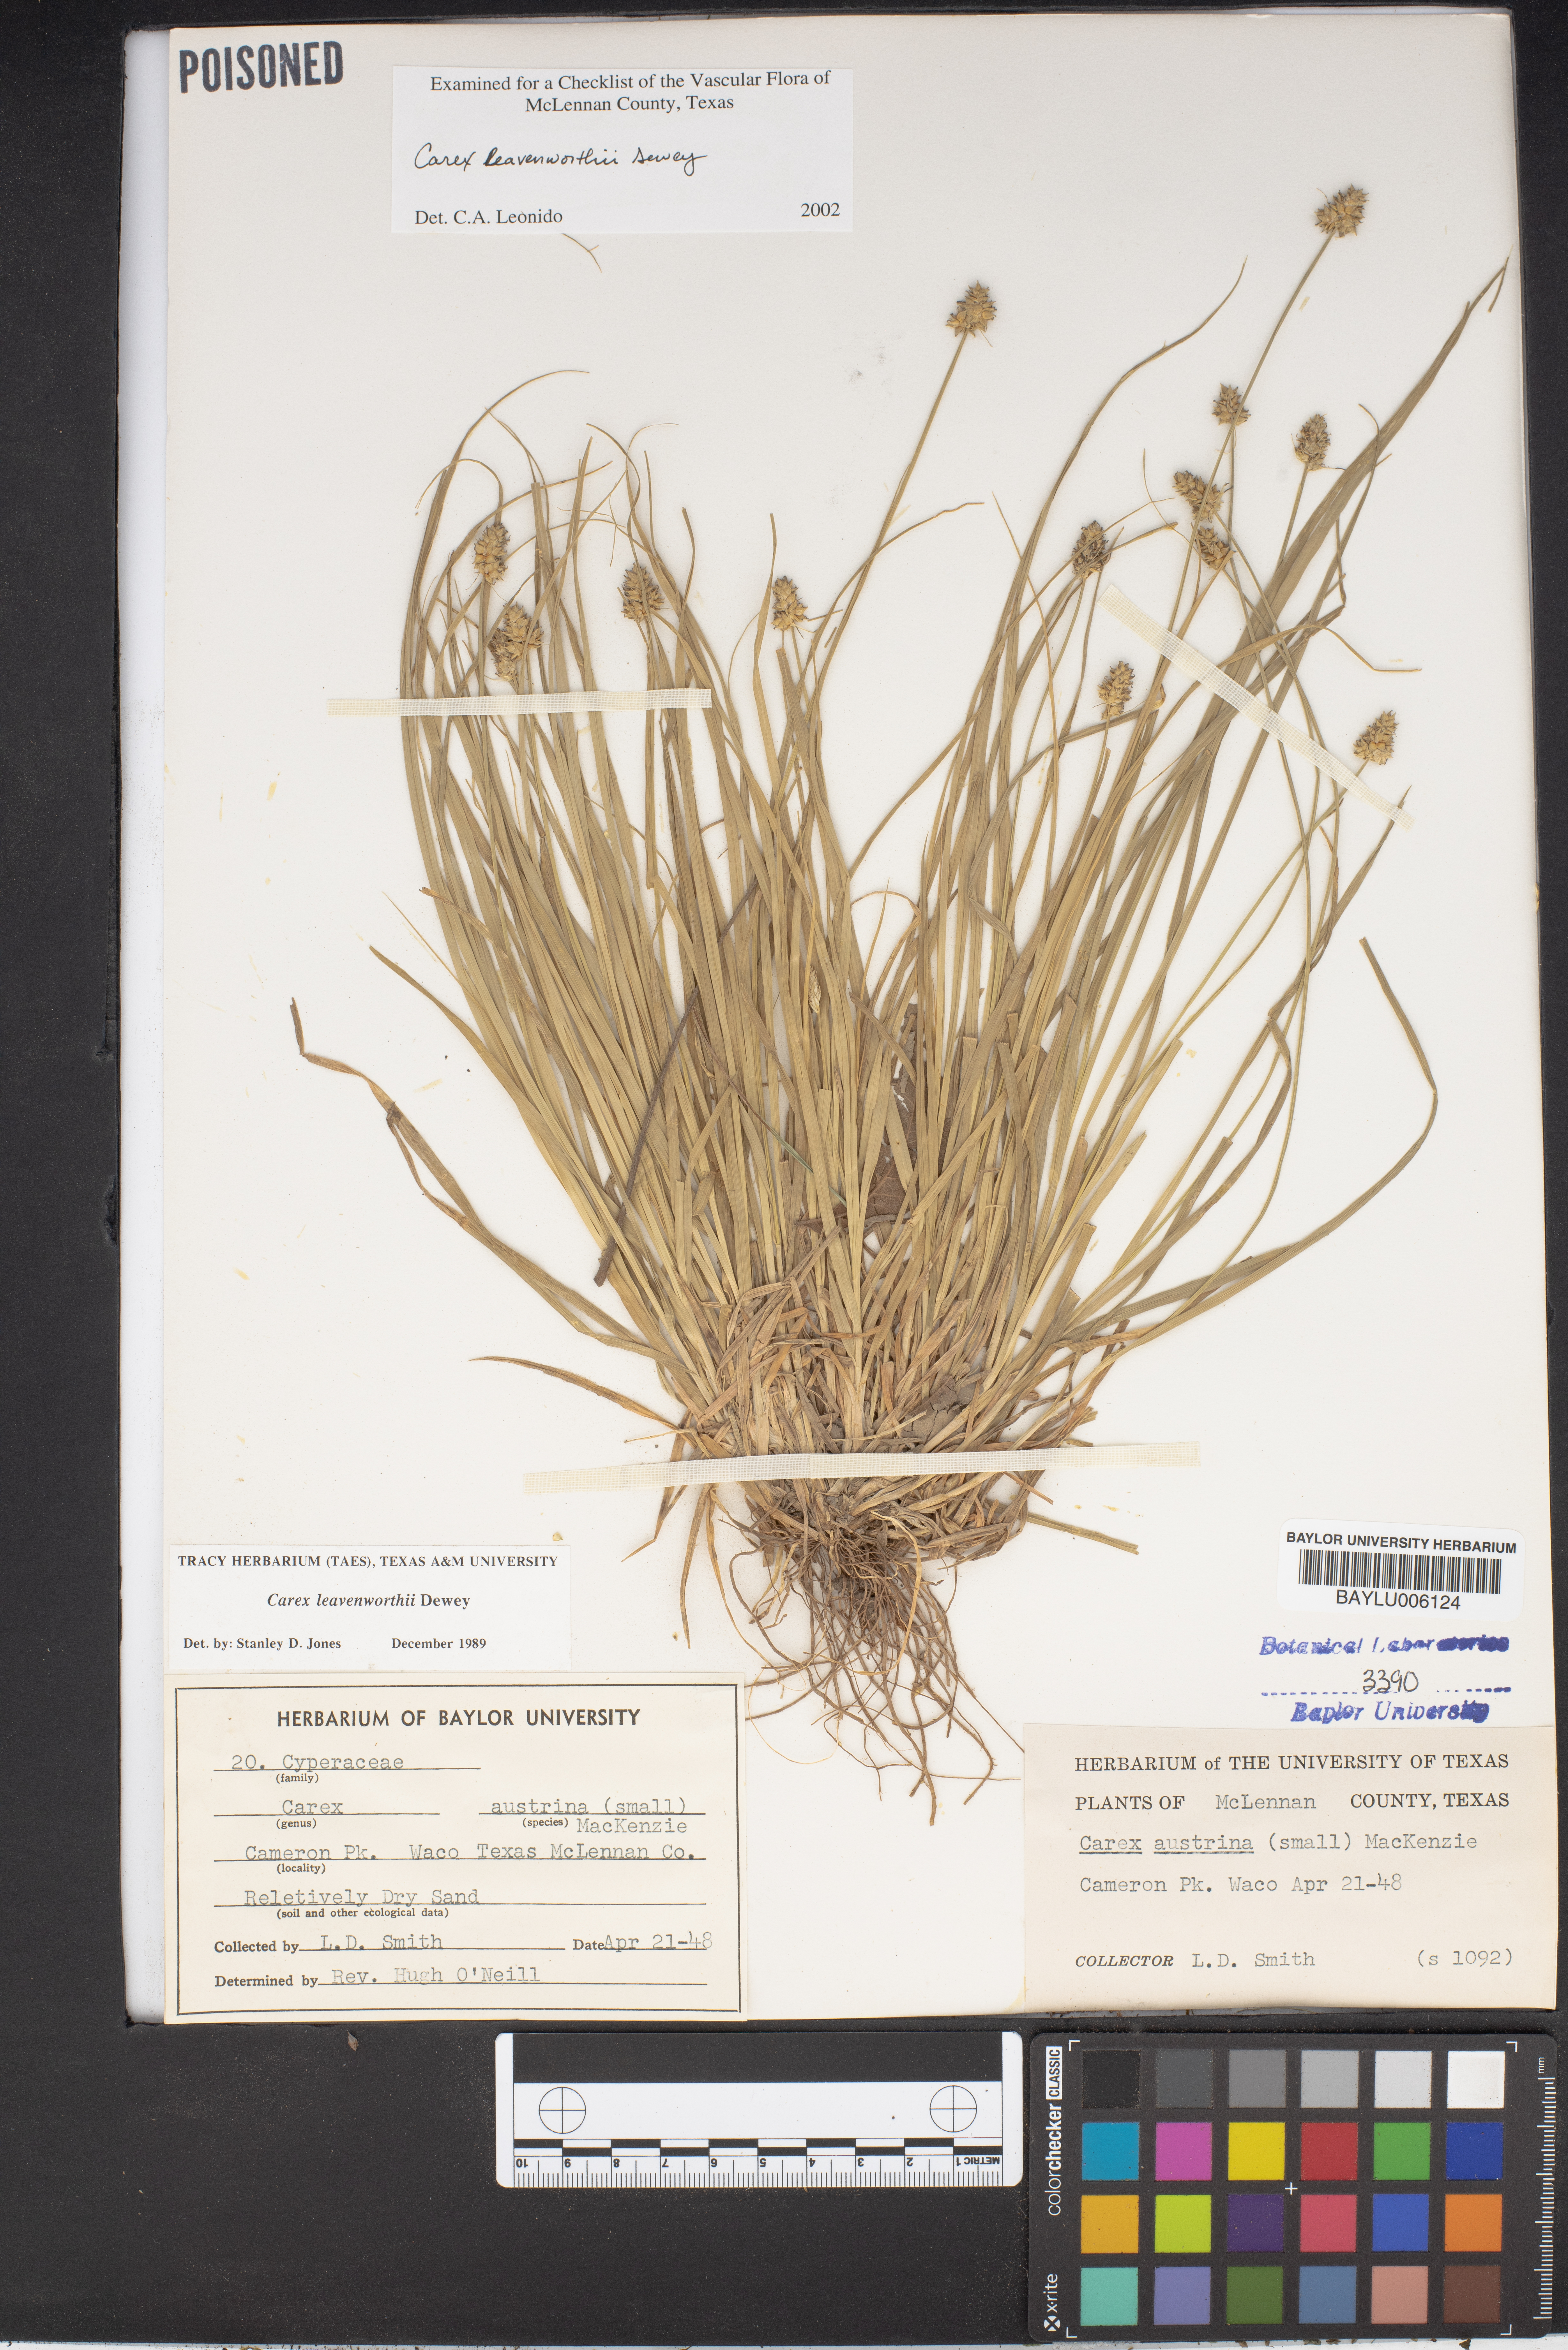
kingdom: Plantae
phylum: Tracheophyta
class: Liliopsida
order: Poales
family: Cyperaceae
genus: Carex
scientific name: Carex austrina
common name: Southern sedge
